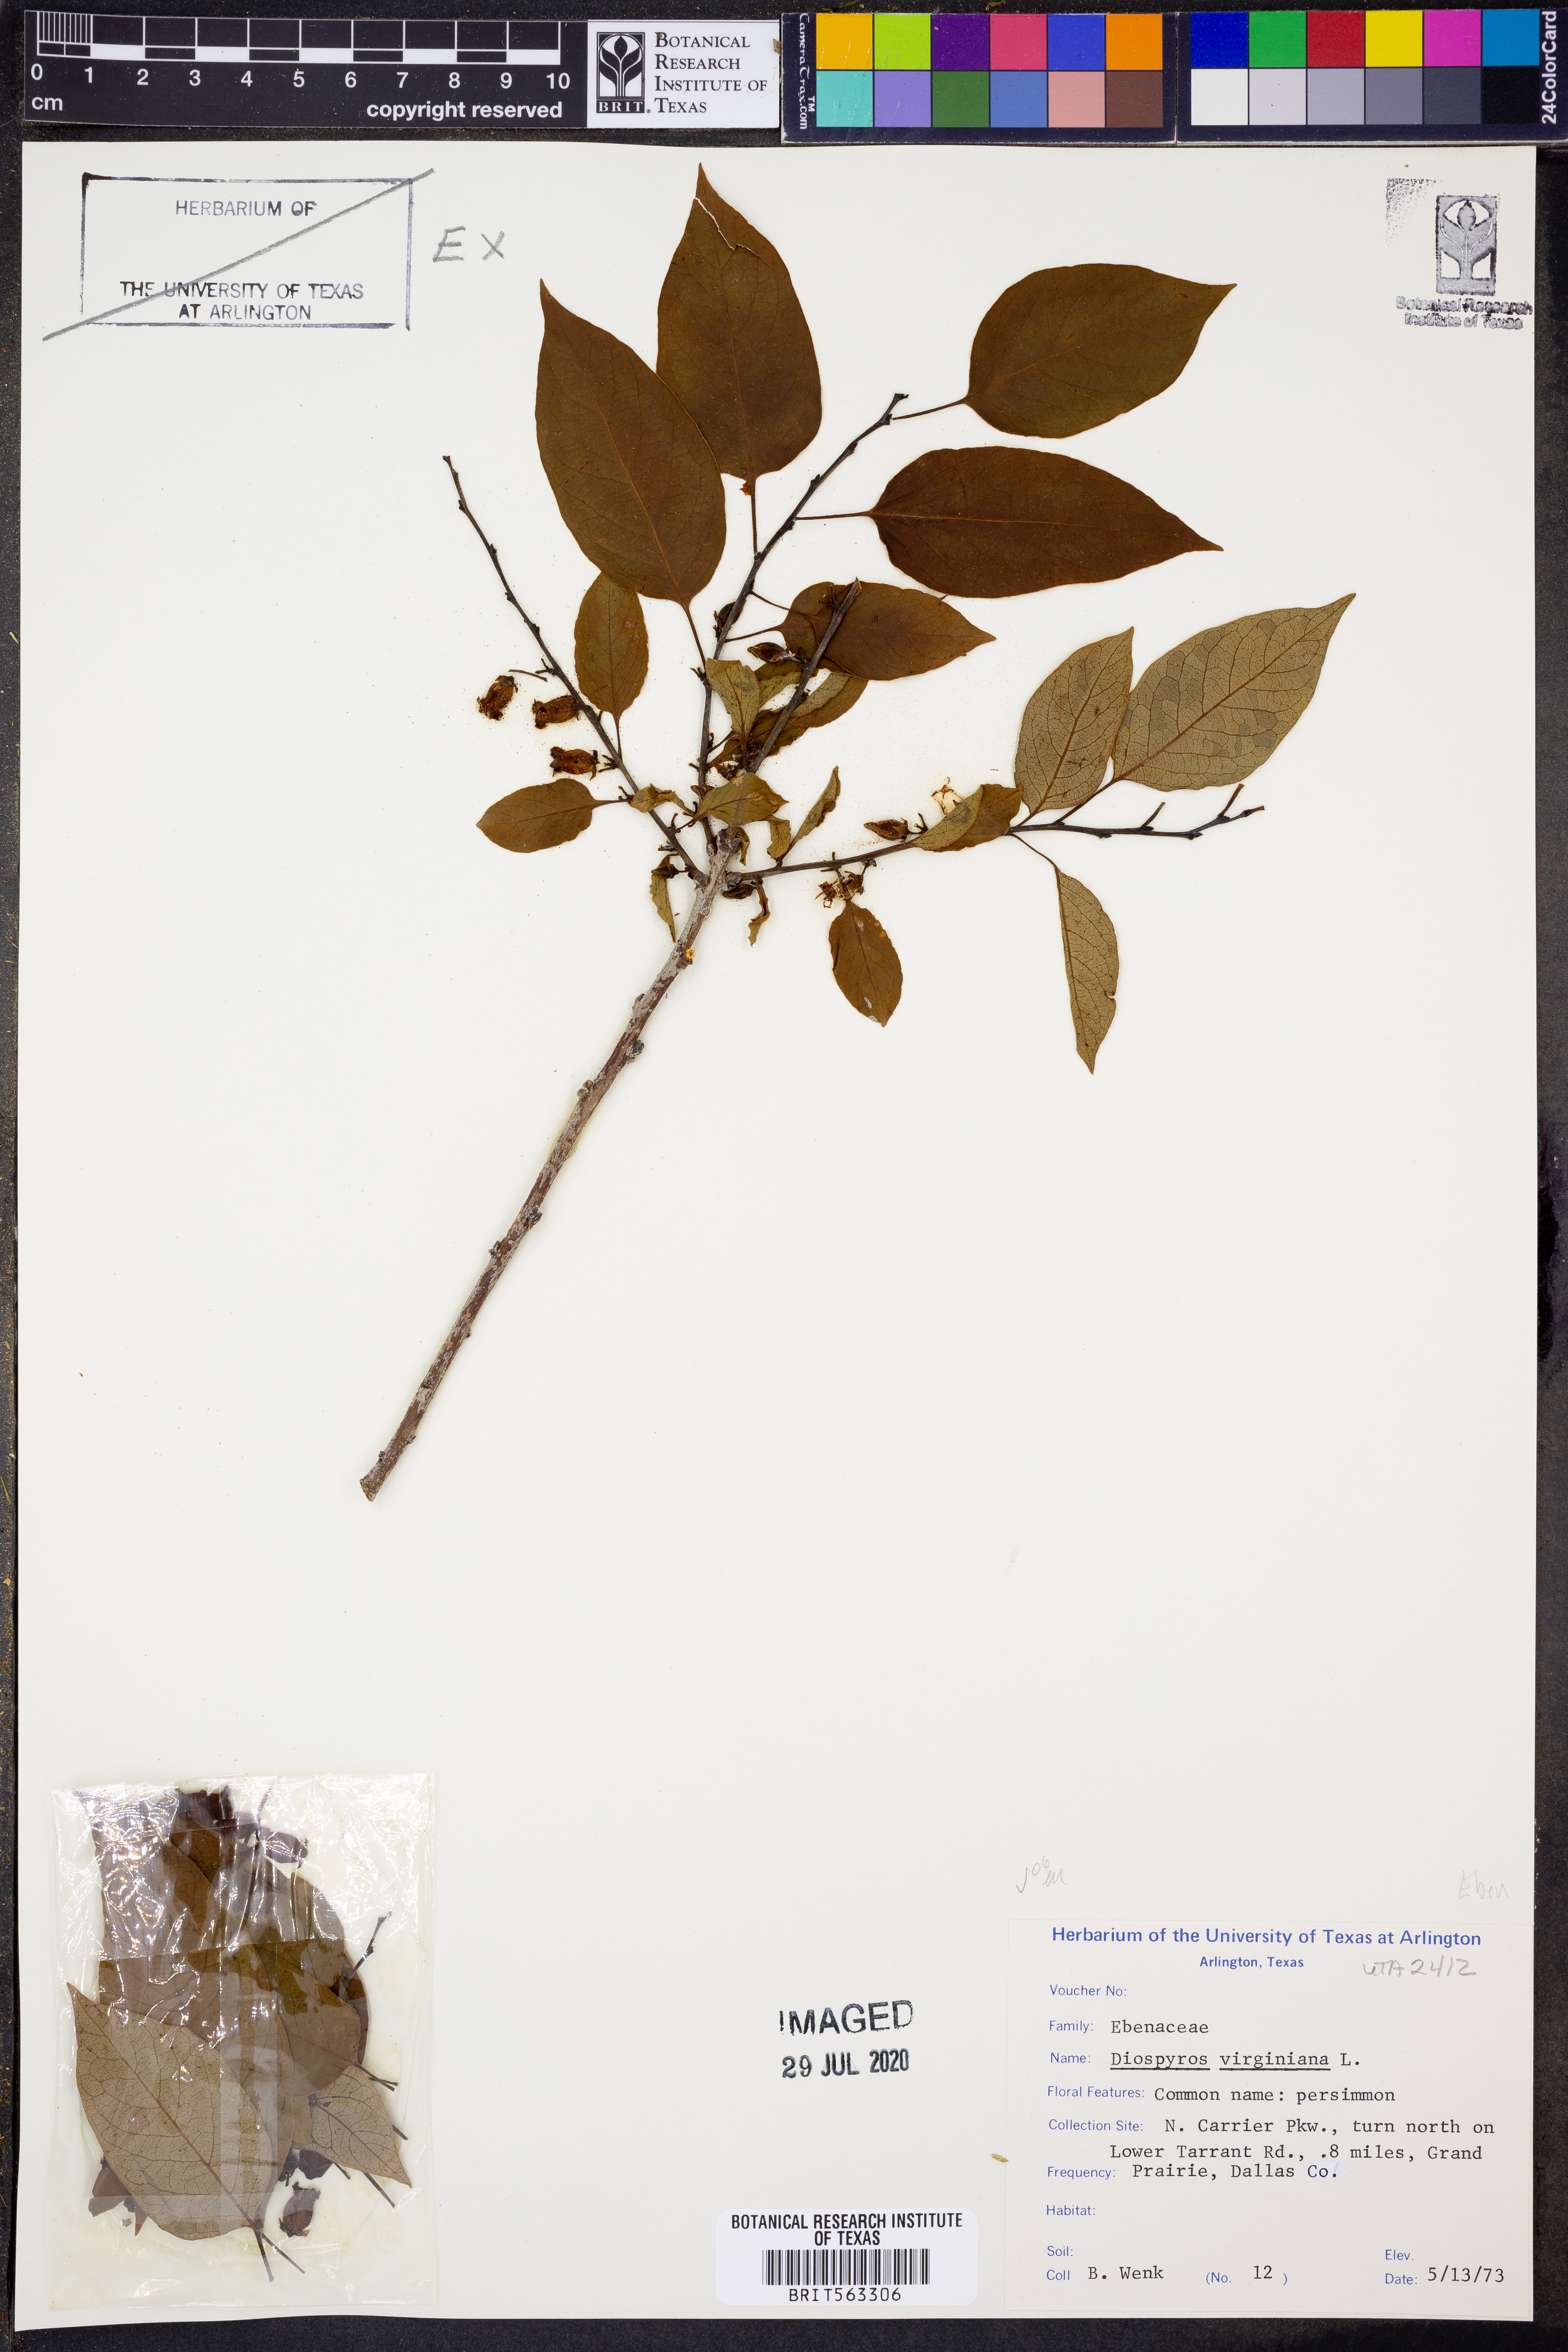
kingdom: Plantae
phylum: Tracheophyta
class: Magnoliopsida
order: Ericales
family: Ebenaceae
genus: Diospyros
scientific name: Diospyros virginiana
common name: Persimmon
